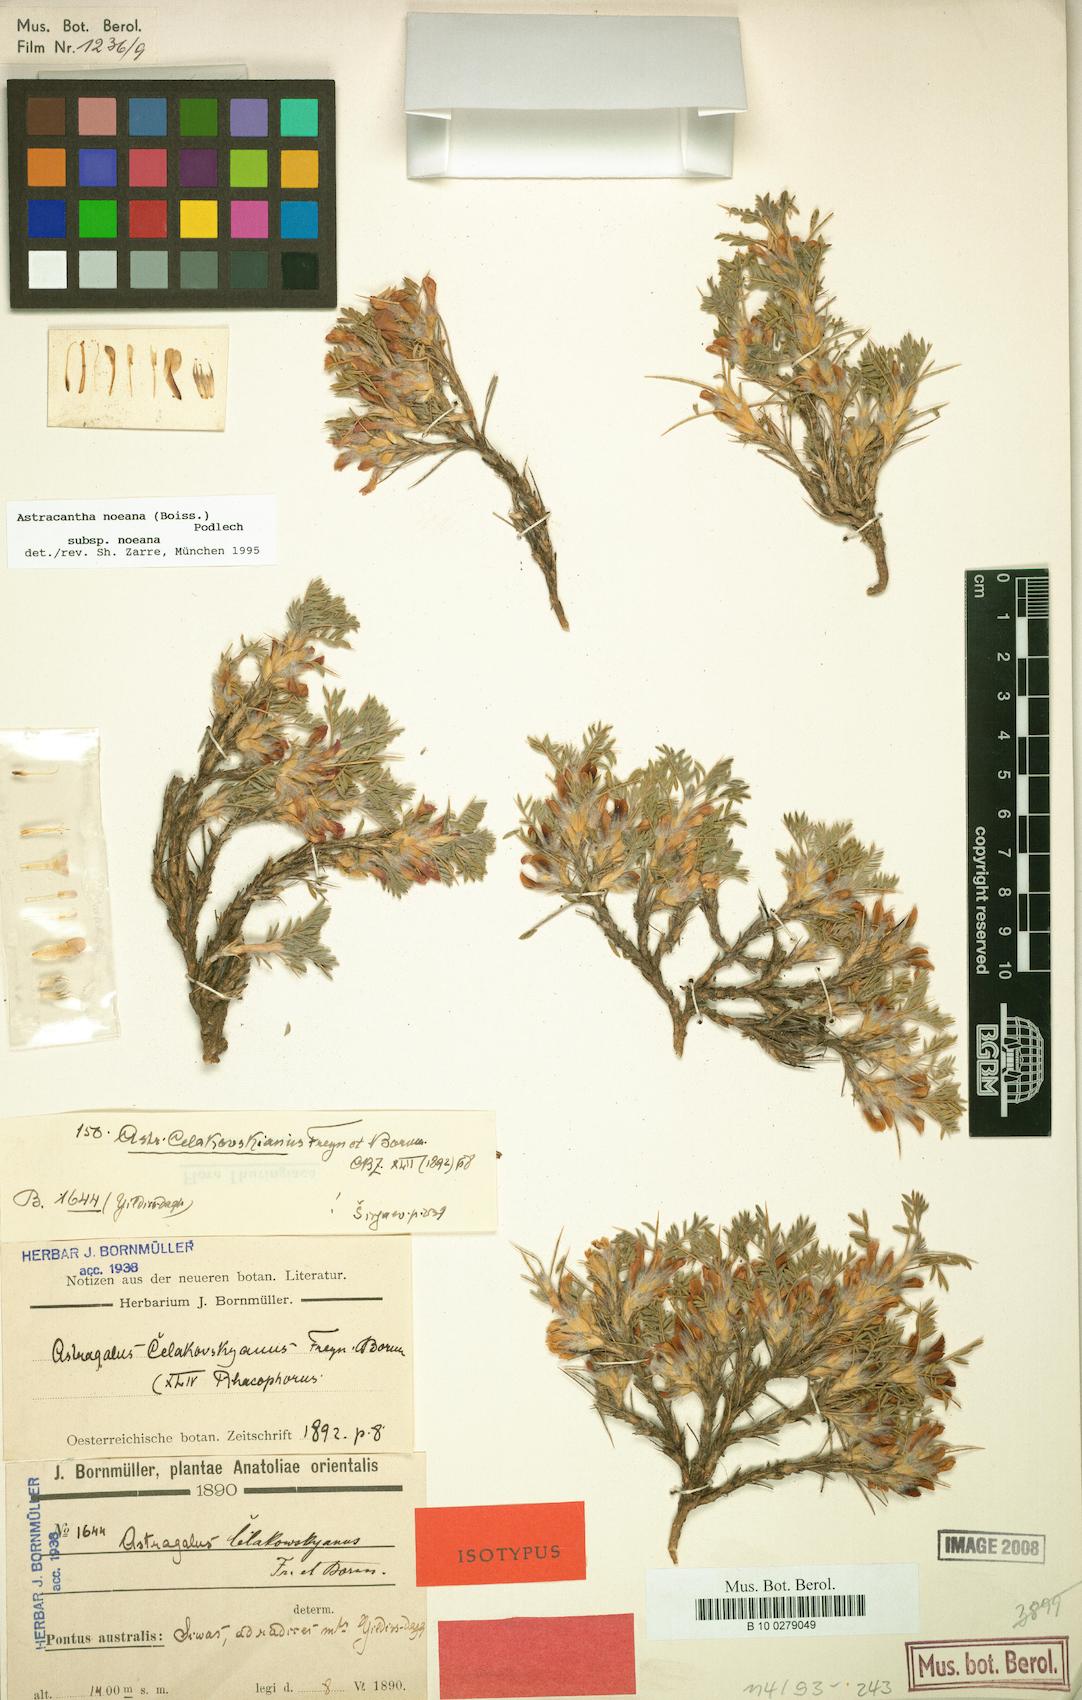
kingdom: Plantae
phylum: Tracheophyta
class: Magnoliopsida
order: Fabales
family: Fabaceae
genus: Astragalus
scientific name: Astragalus noeanus
